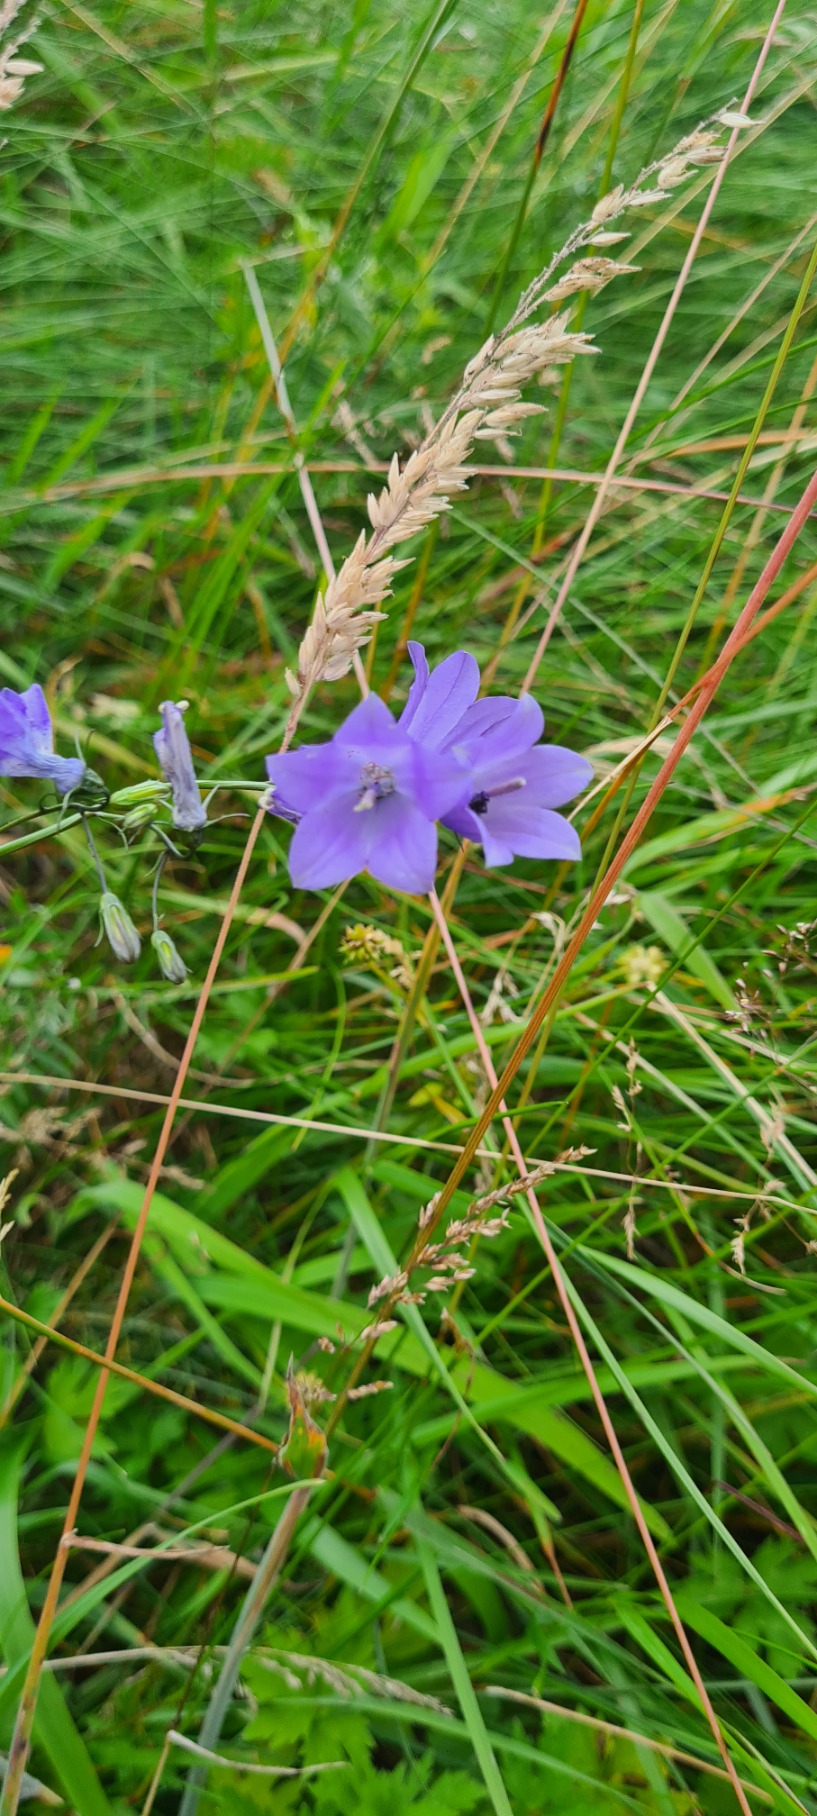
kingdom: Plantae
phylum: Tracheophyta
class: Magnoliopsida
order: Asterales
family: Campanulaceae
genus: Campanula
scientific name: Campanula rotundifolia
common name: Liden klokke
